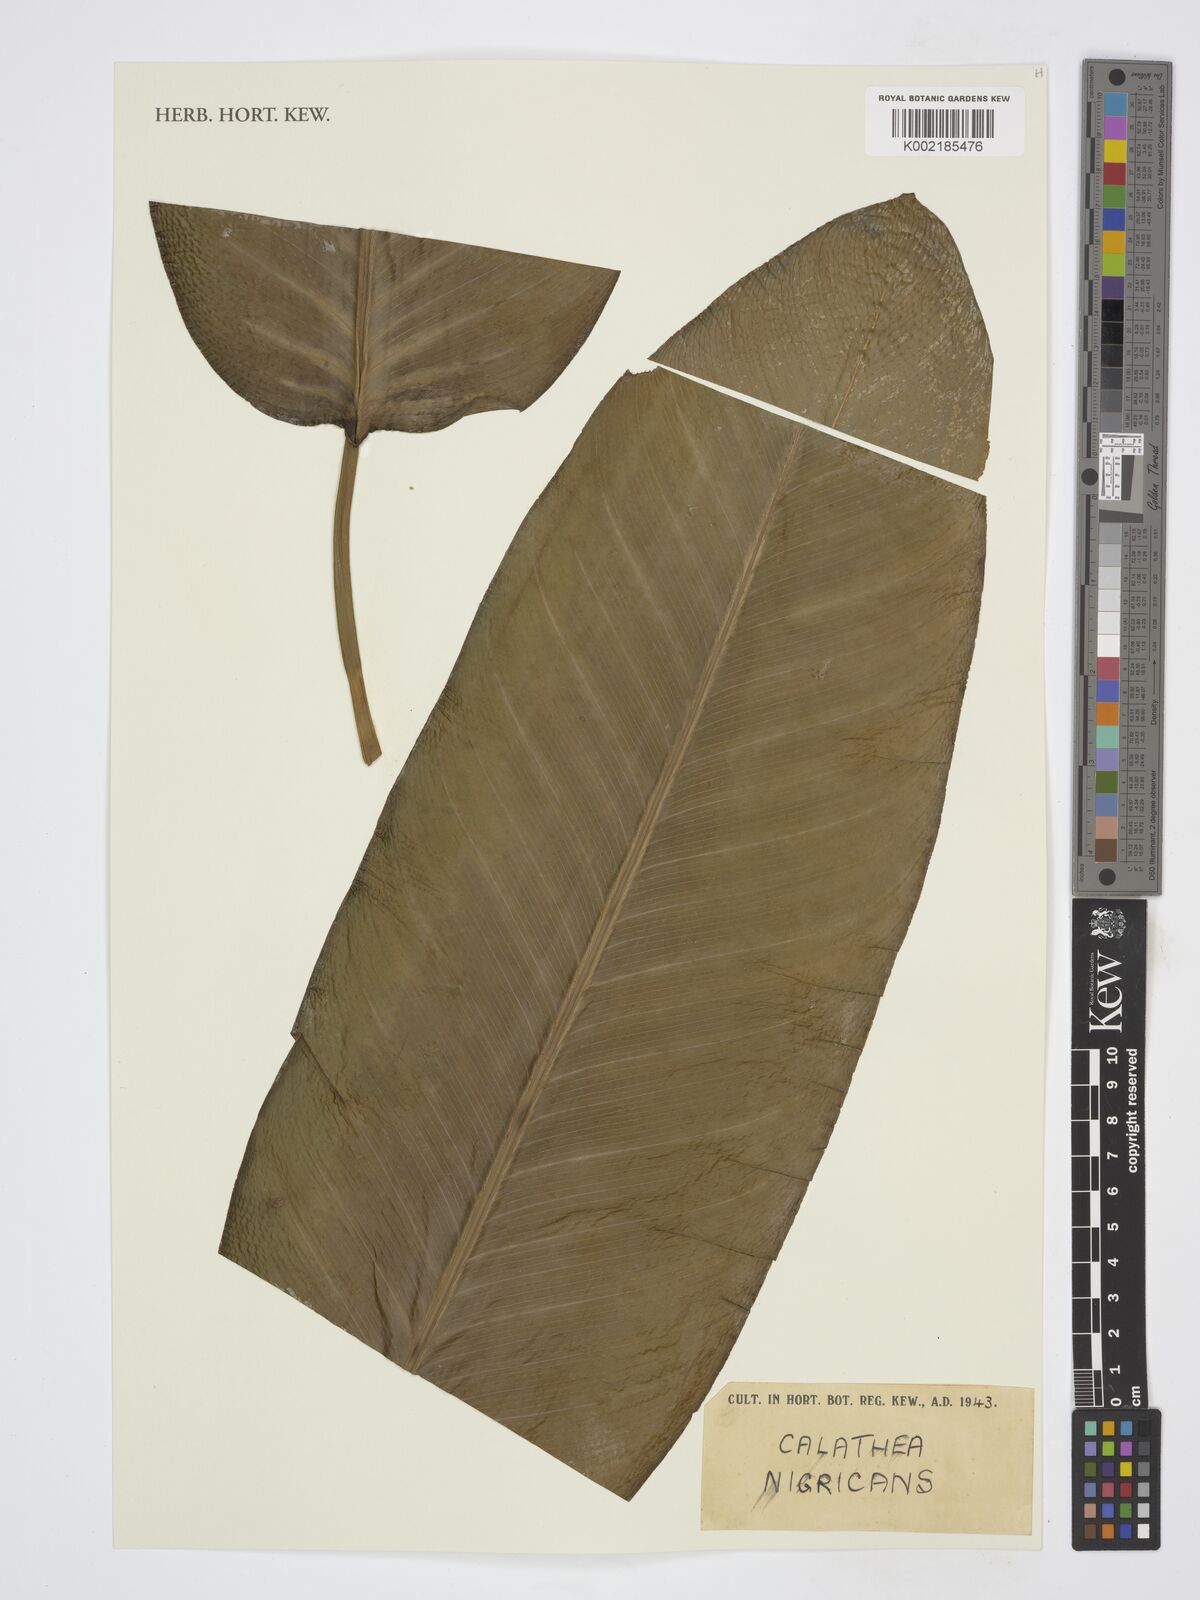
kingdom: Plantae
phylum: Tracheophyta
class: Liliopsida
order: Zingiberales
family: Marantaceae
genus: Goeppertia
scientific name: Goeppertia nigricans
